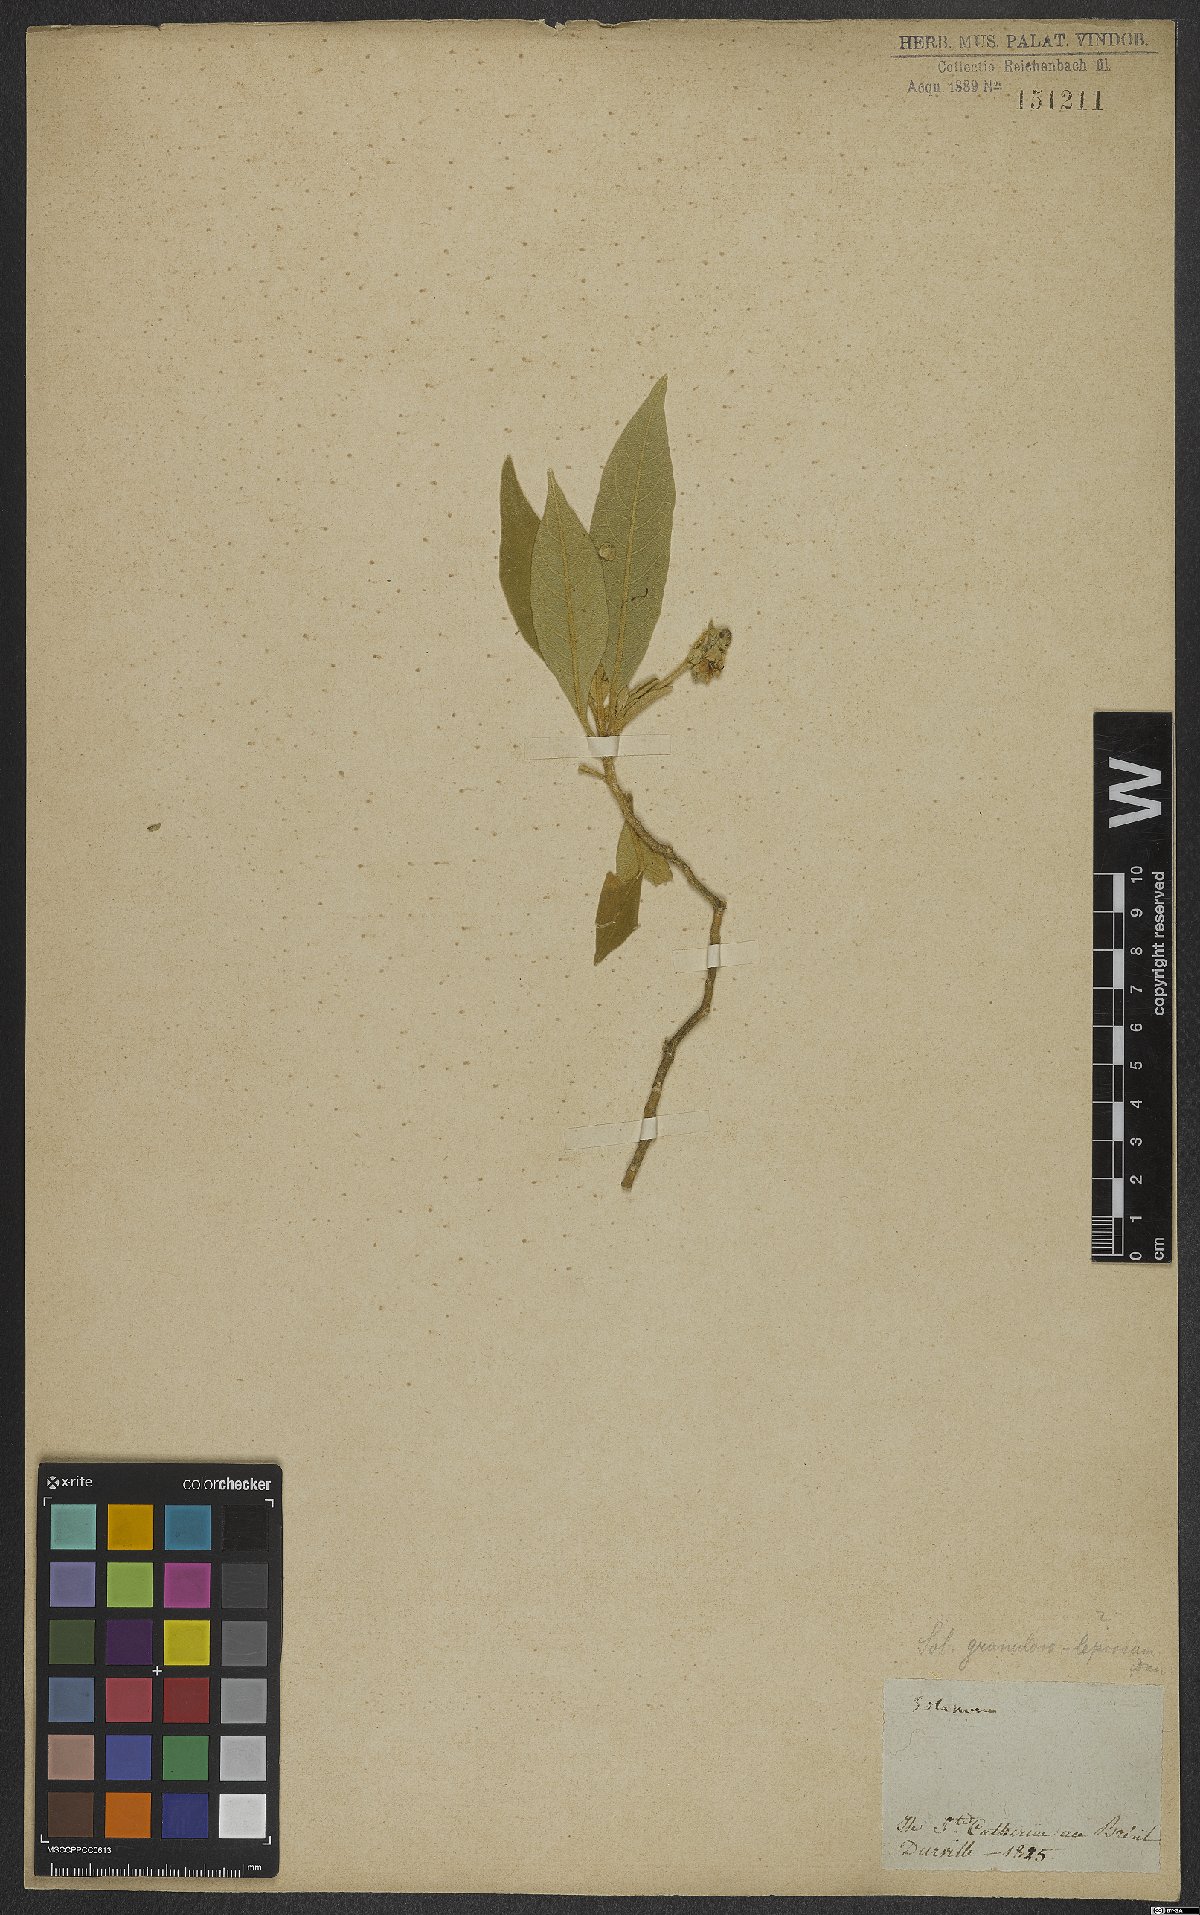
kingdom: Plantae
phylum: Tracheophyta
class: Magnoliopsida
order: Solanales
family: Solanaceae
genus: Solanum
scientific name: Solanum granulosoleprosum
